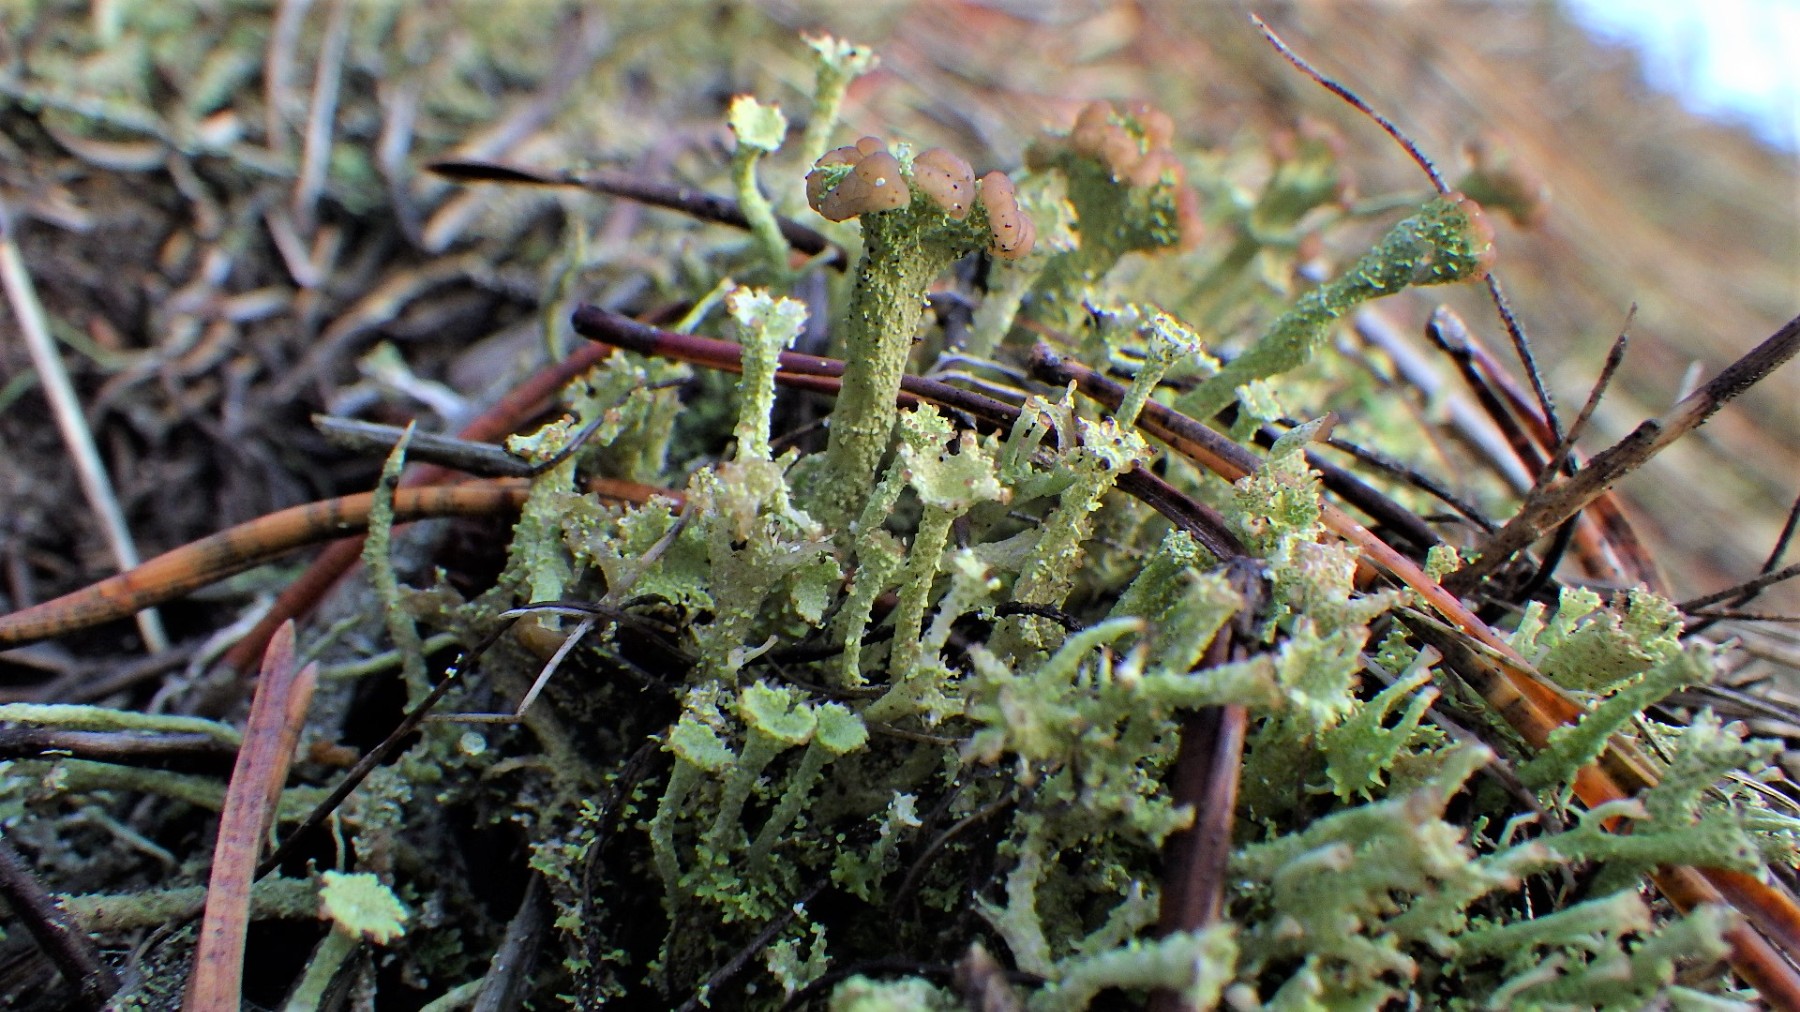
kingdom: Fungi
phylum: Ascomycota
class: Lecanoromycetes
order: Lecanorales
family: Cladoniaceae
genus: Cladonia
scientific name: Cladonia ramulosa
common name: kliddet bægerlav
